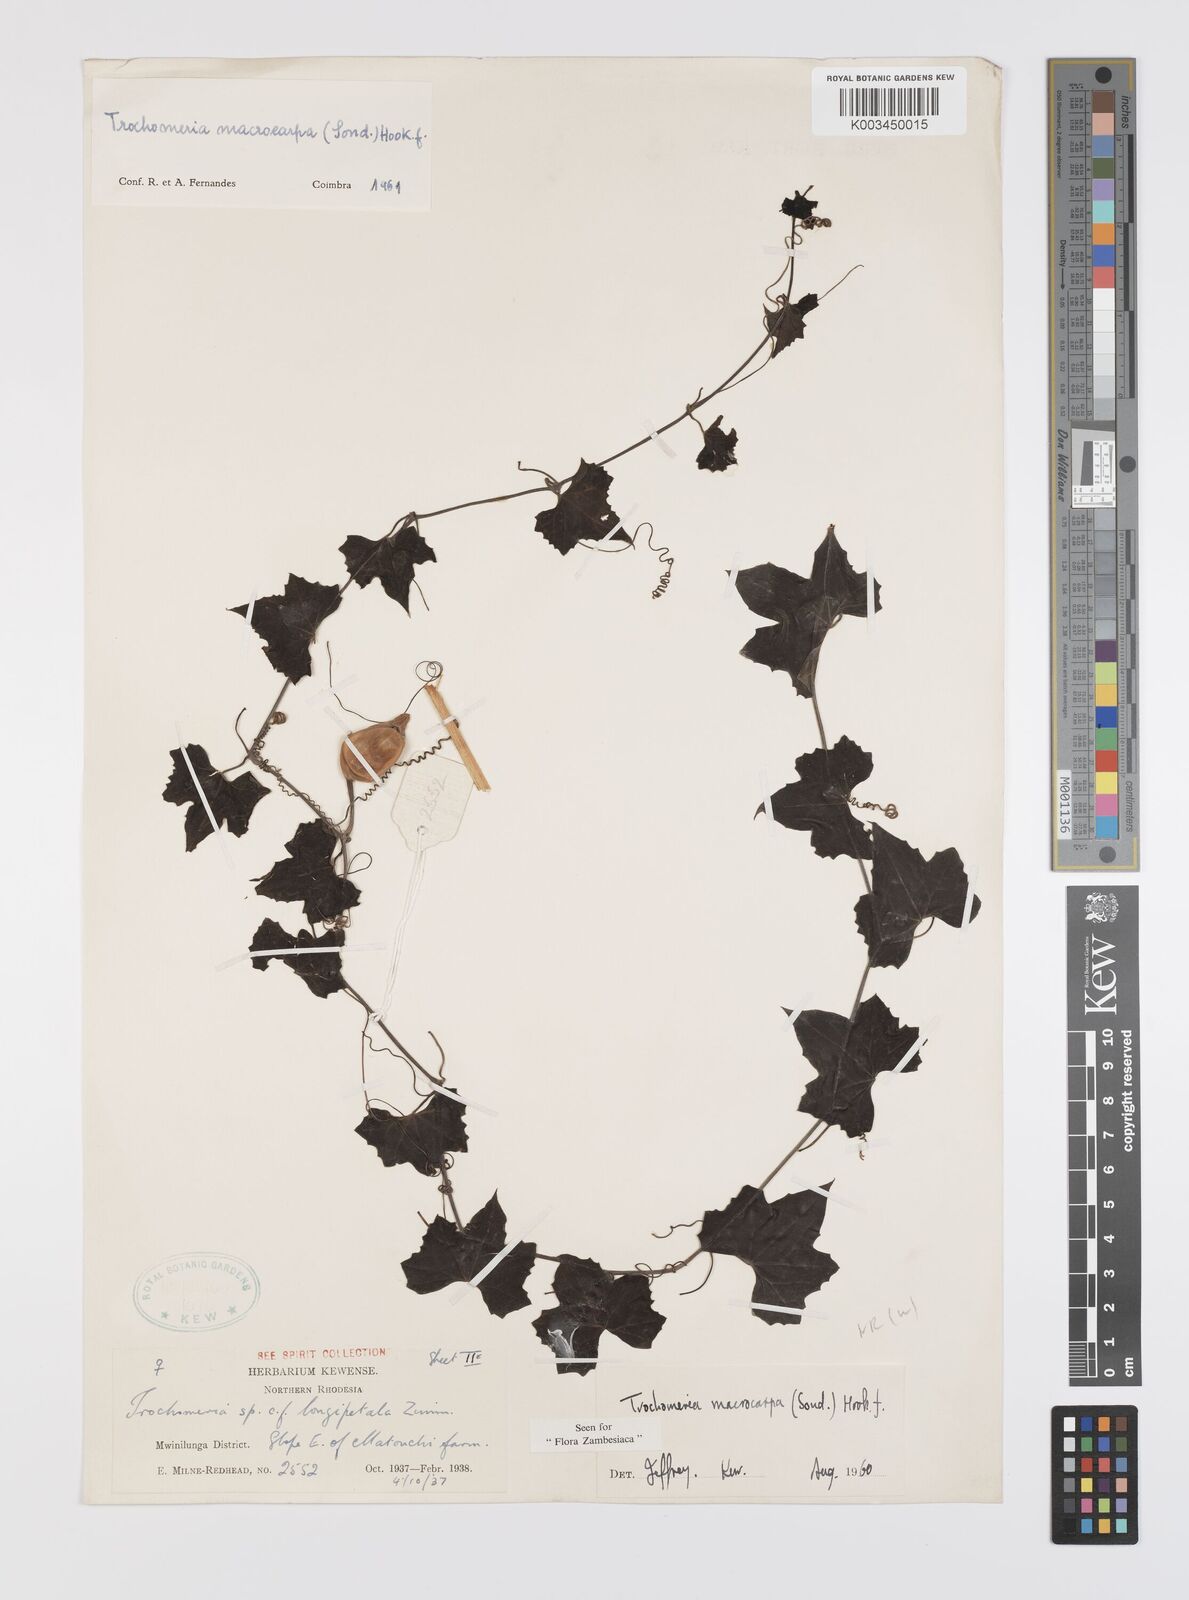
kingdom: Plantae
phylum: Tracheophyta
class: Magnoliopsida
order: Cucurbitales
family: Cucurbitaceae
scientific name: Cucurbitaceae
